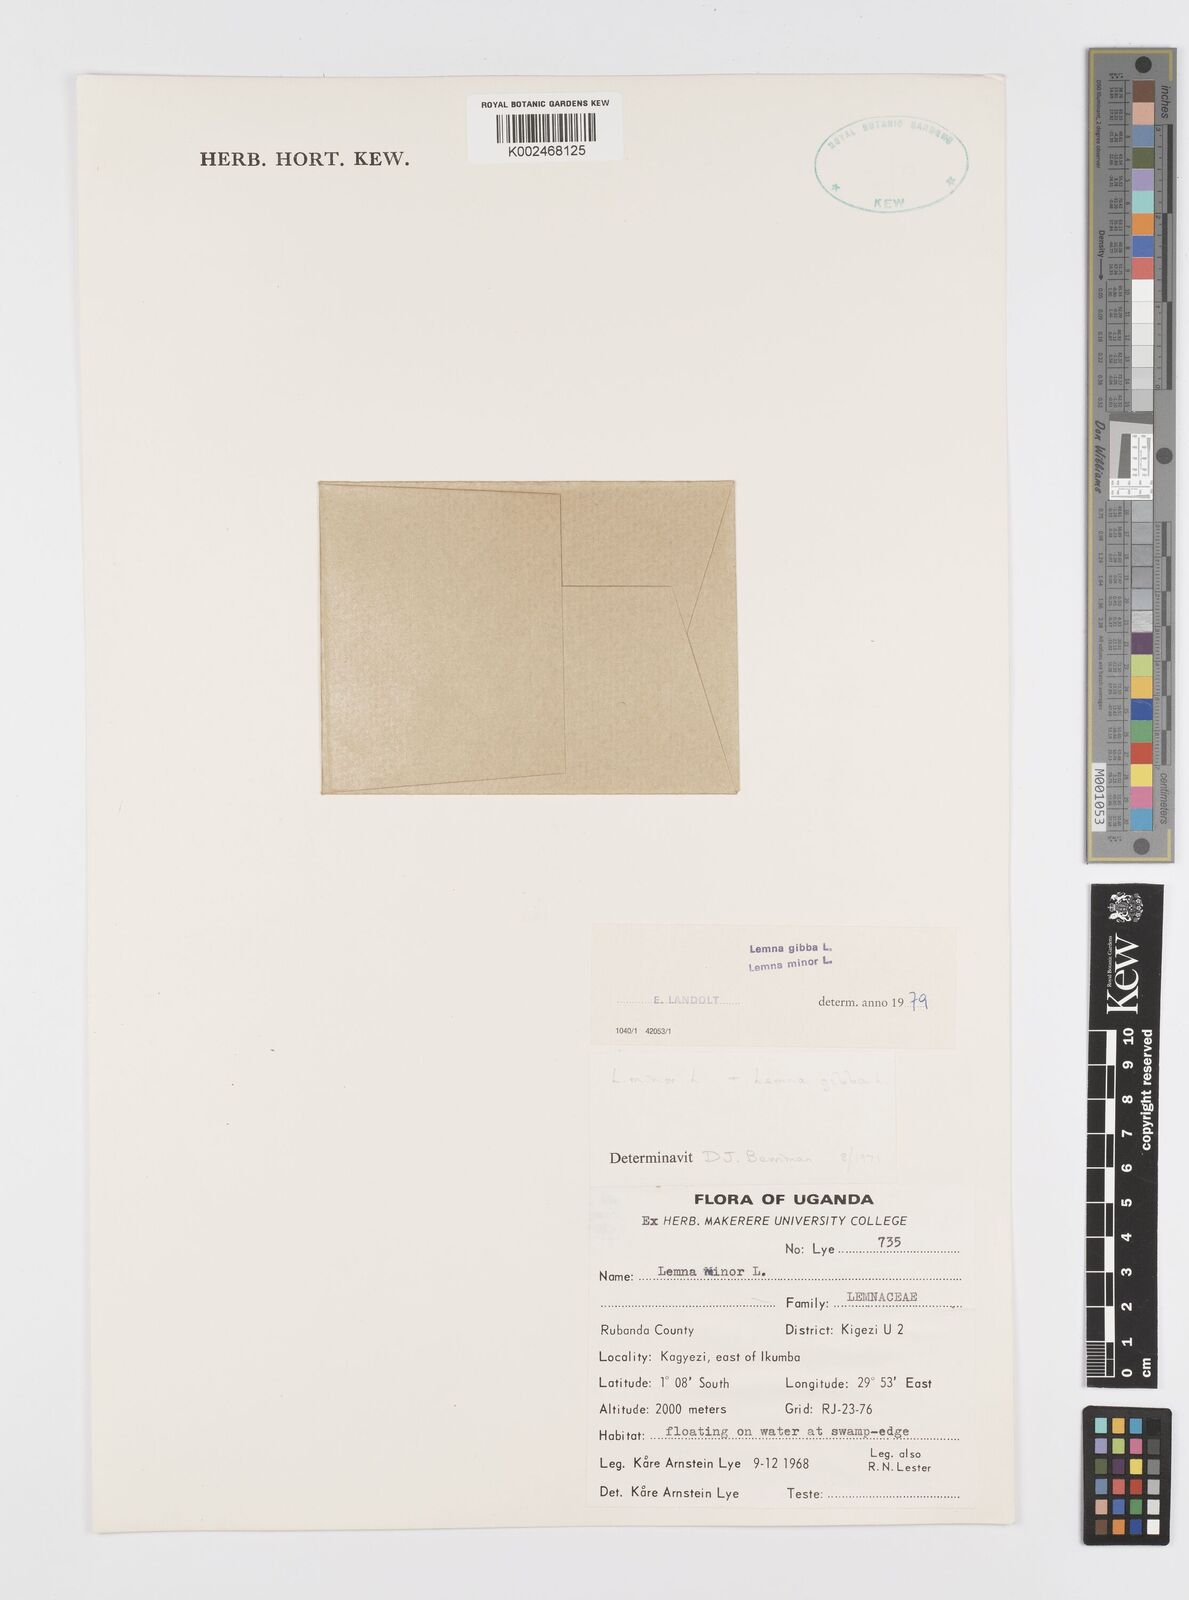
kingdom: Plantae
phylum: Tracheophyta
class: Liliopsida
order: Alismatales
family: Araceae
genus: Lemna
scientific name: Lemna minor
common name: Common duckweed
